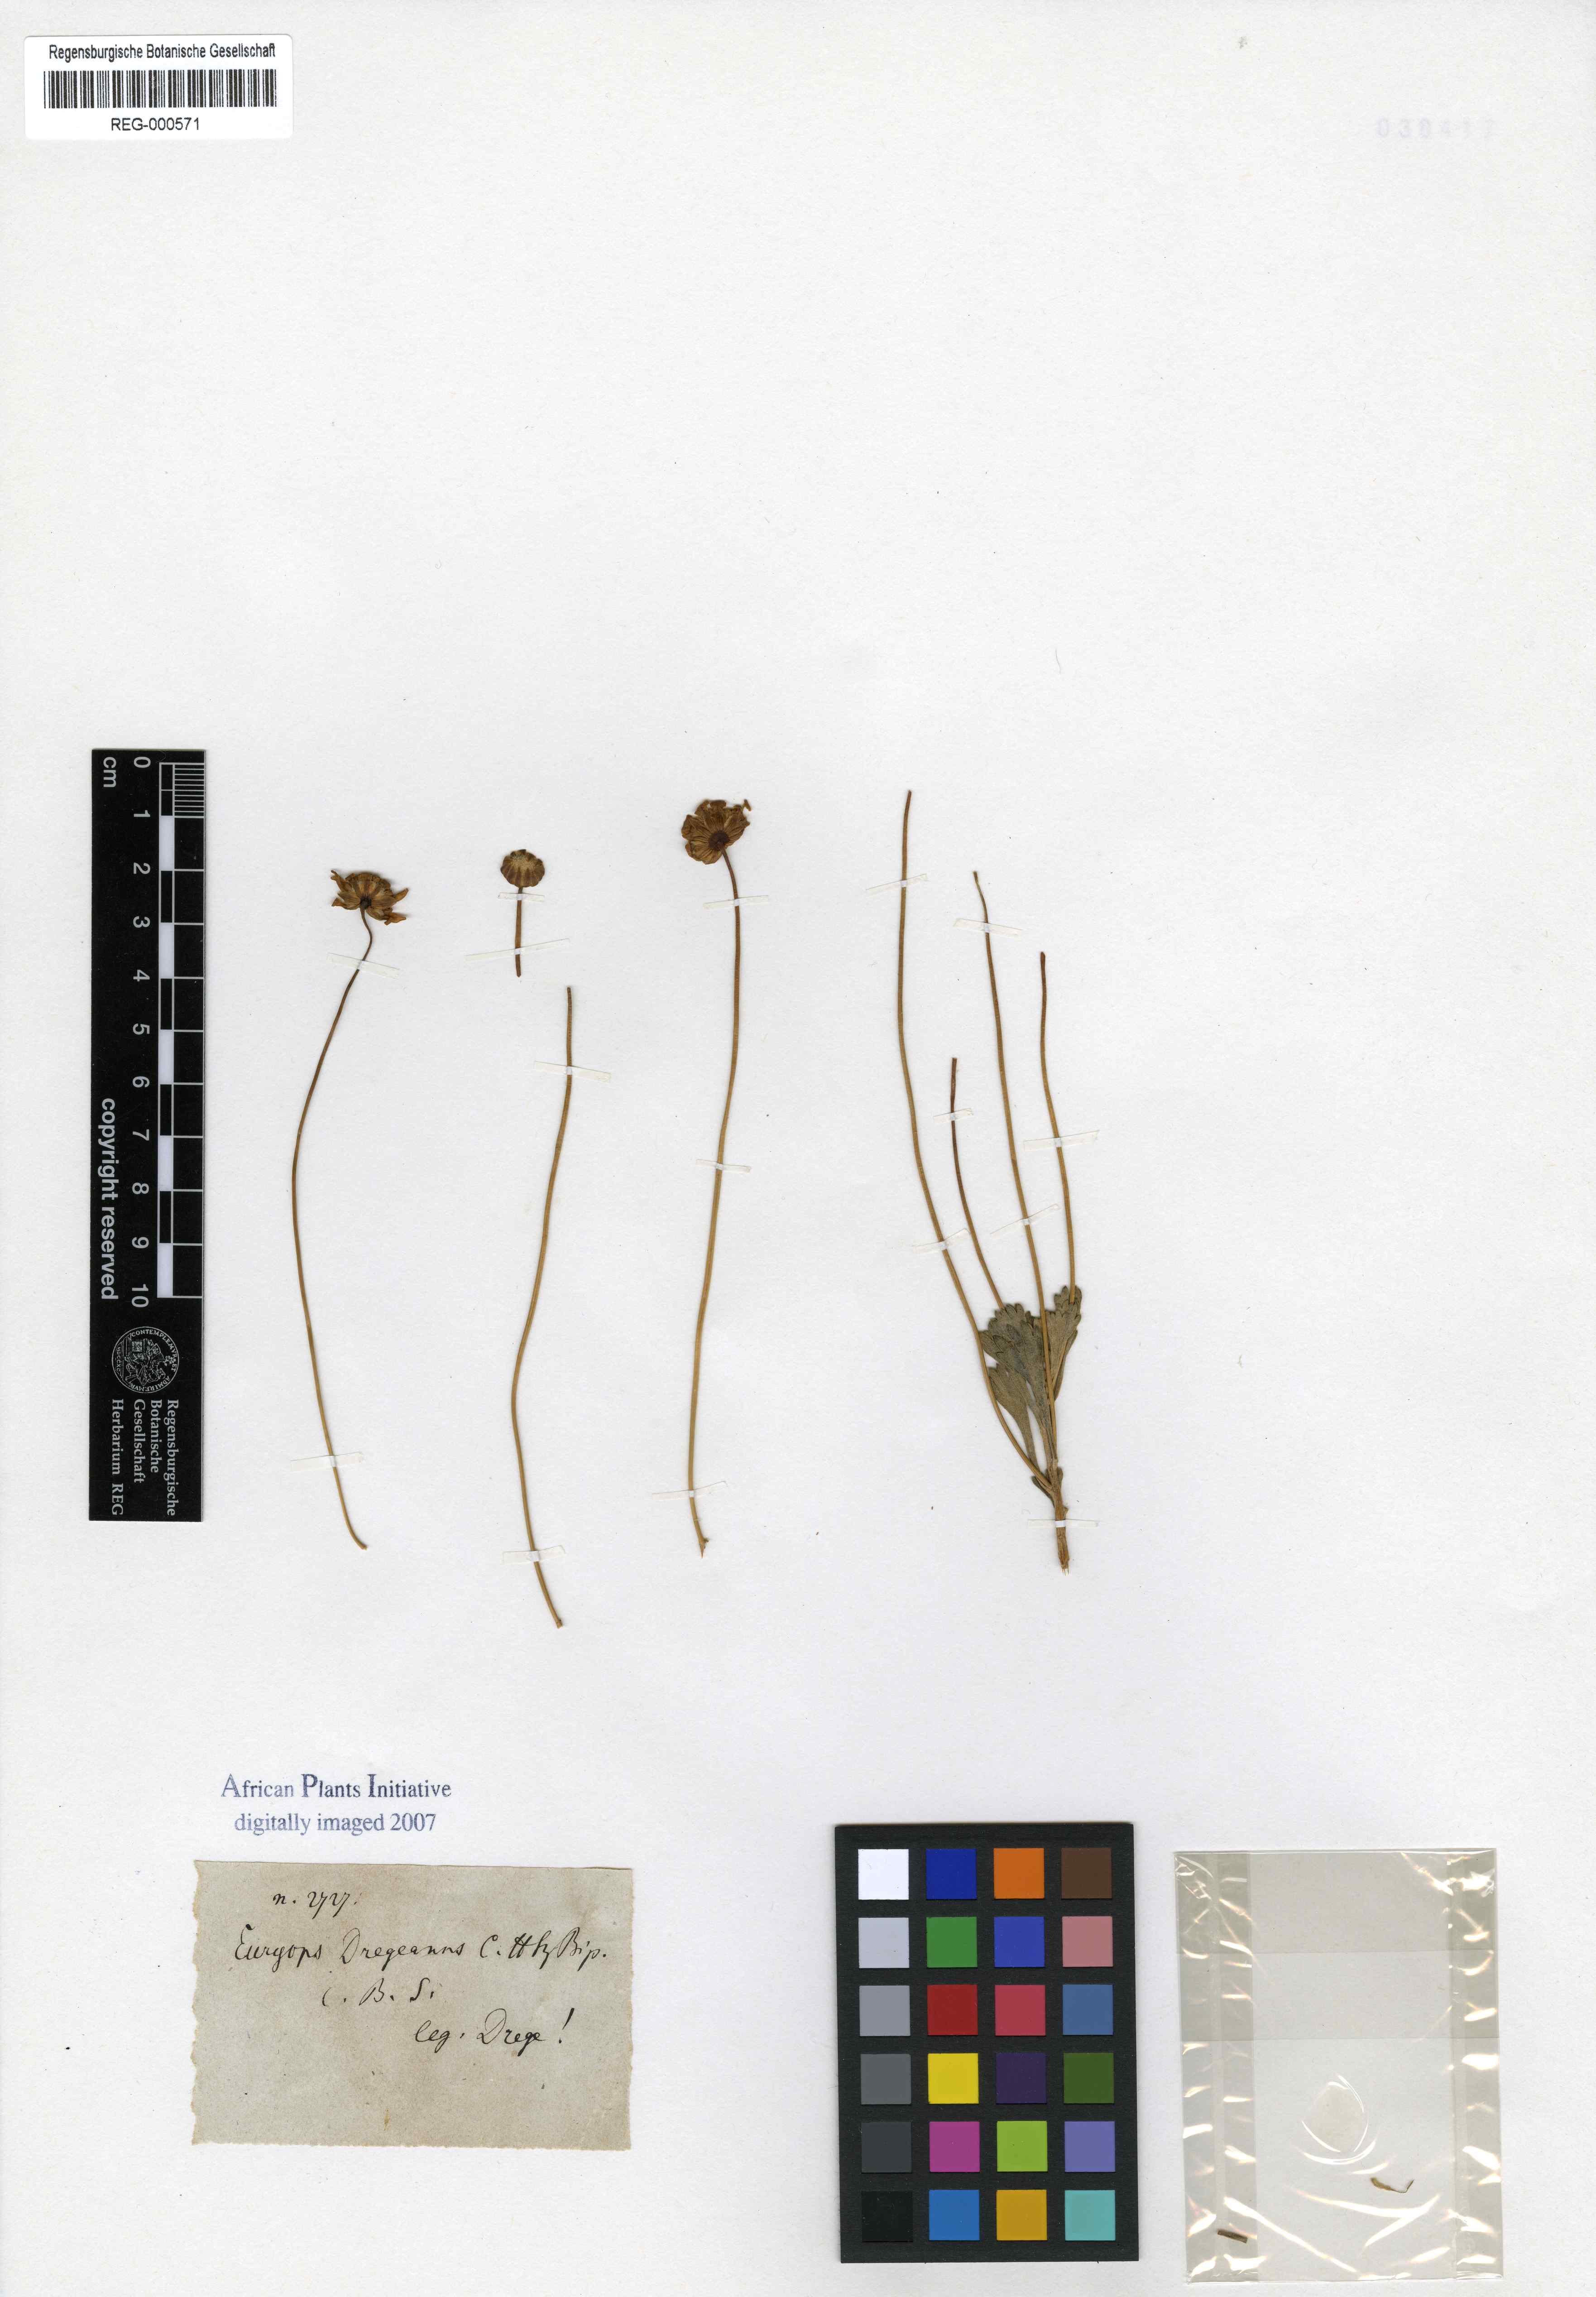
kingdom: Plantae
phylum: Tracheophyta
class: Magnoliopsida
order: Asterales
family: Asteraceae
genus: Euryops
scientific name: Euryops dregeanus
